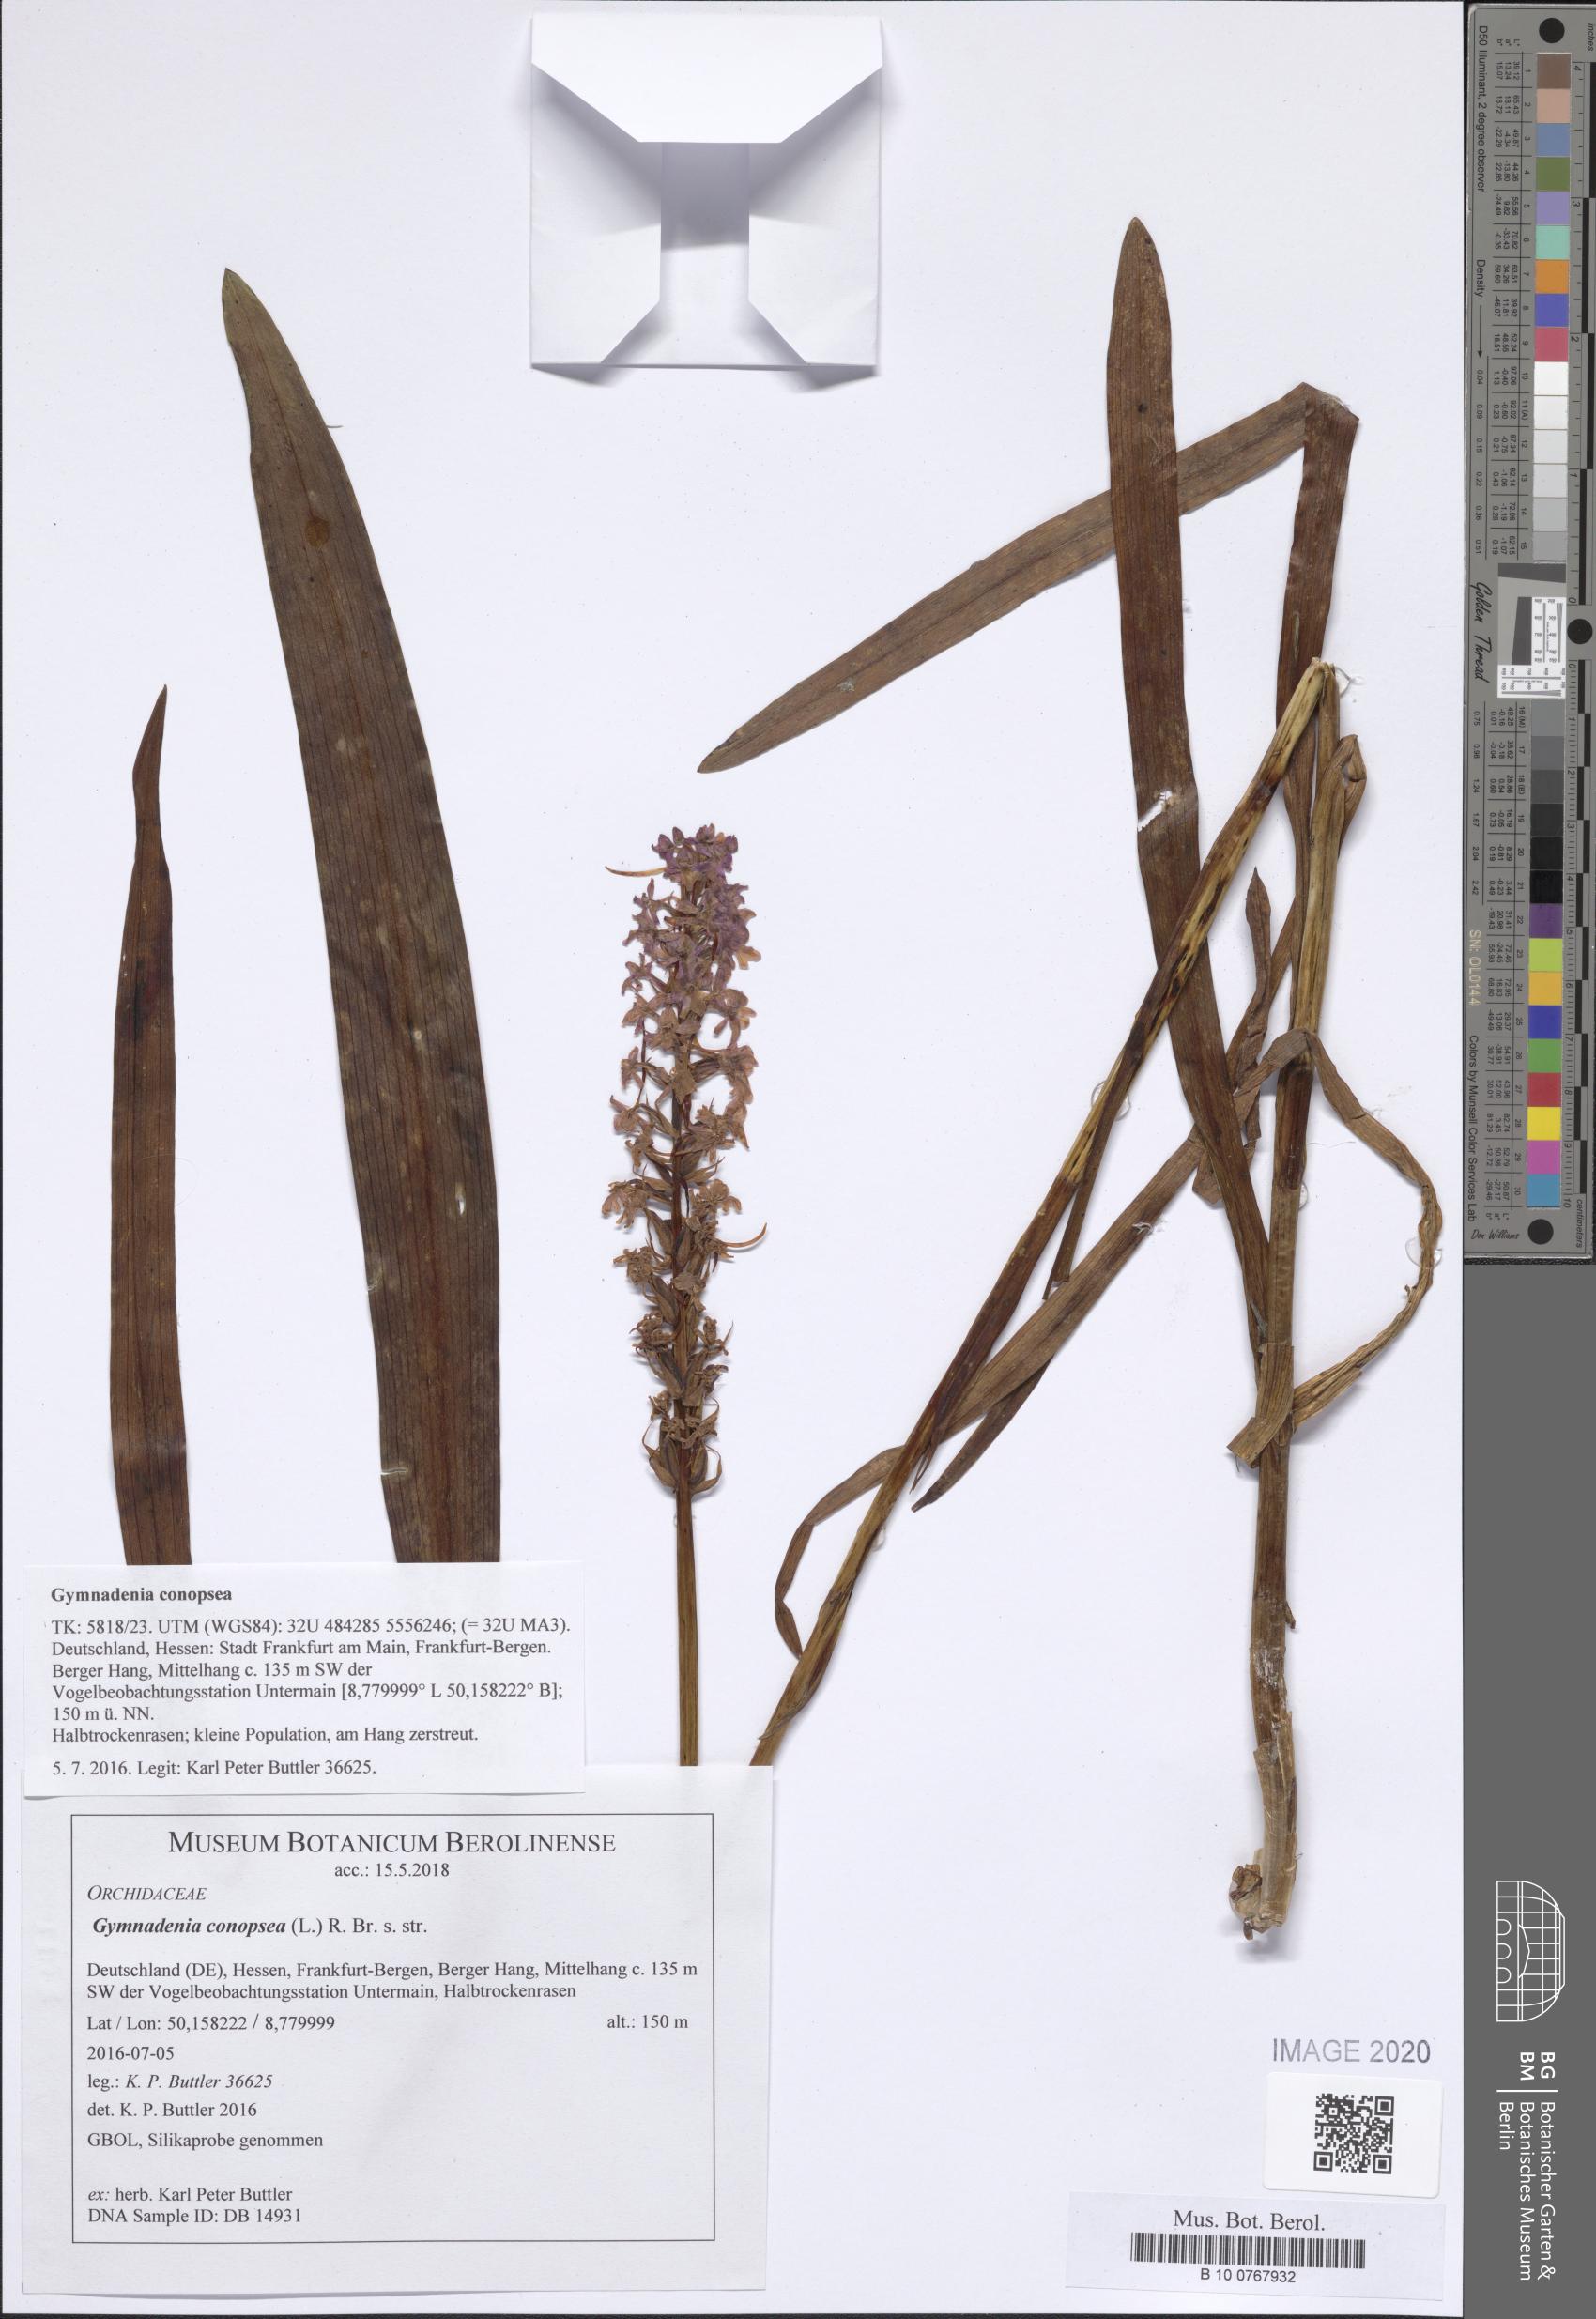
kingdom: Plantae
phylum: Tracheophyta
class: Liliopsida
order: Asparagales
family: Orchidaceae
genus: Gymnadenia
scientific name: Gymnadenia conopsea
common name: Fragrant orchid
